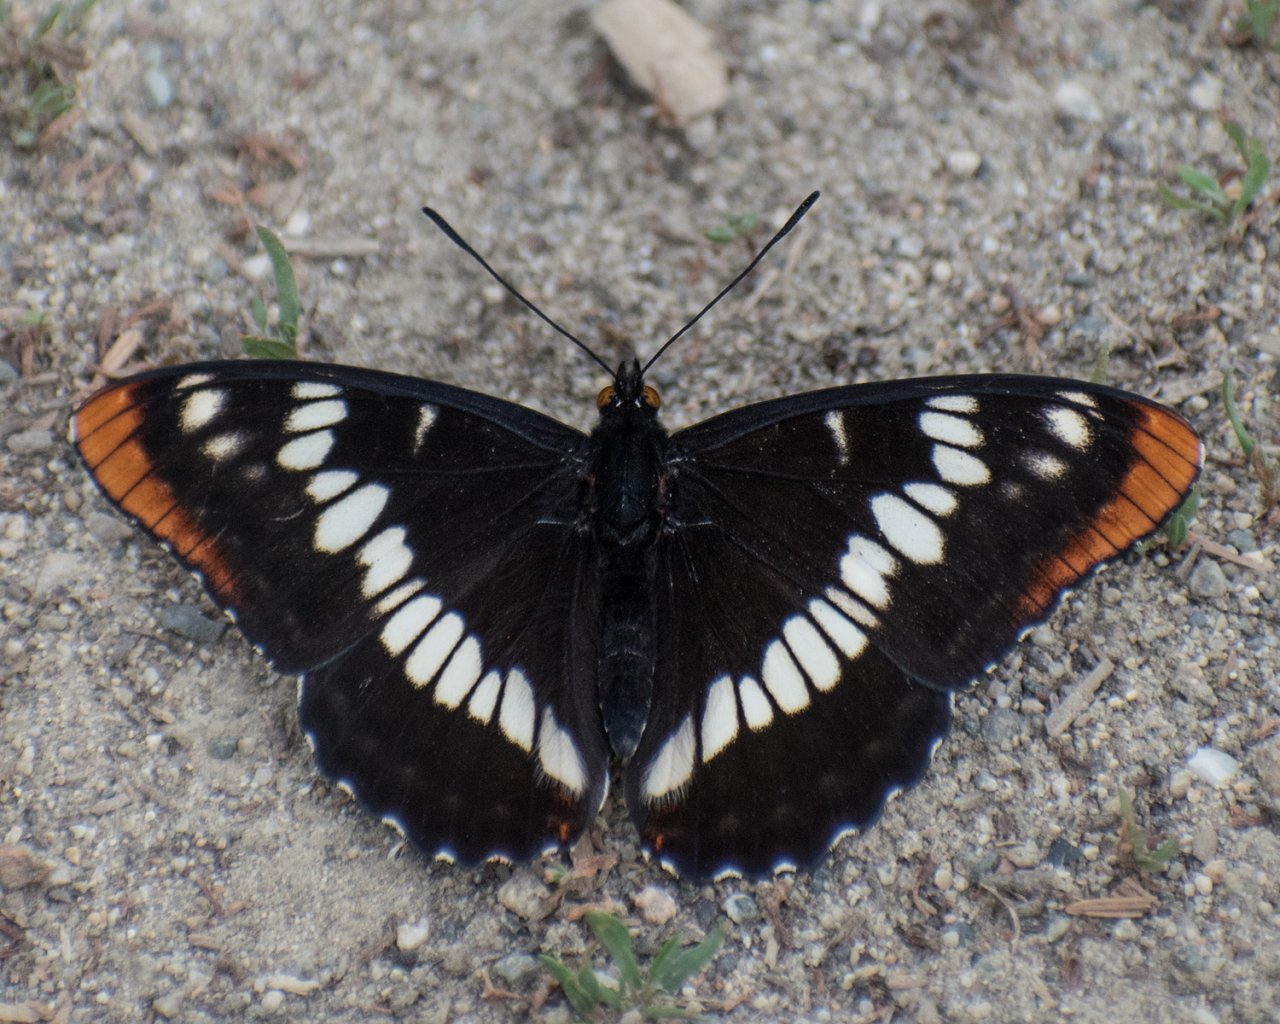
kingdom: Animalia
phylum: Arthropoda
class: Insecta
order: Lepidoptera
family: Nymphalidae
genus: Limenitis
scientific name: Limenitis lorquini
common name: Lorquin's Admiral
